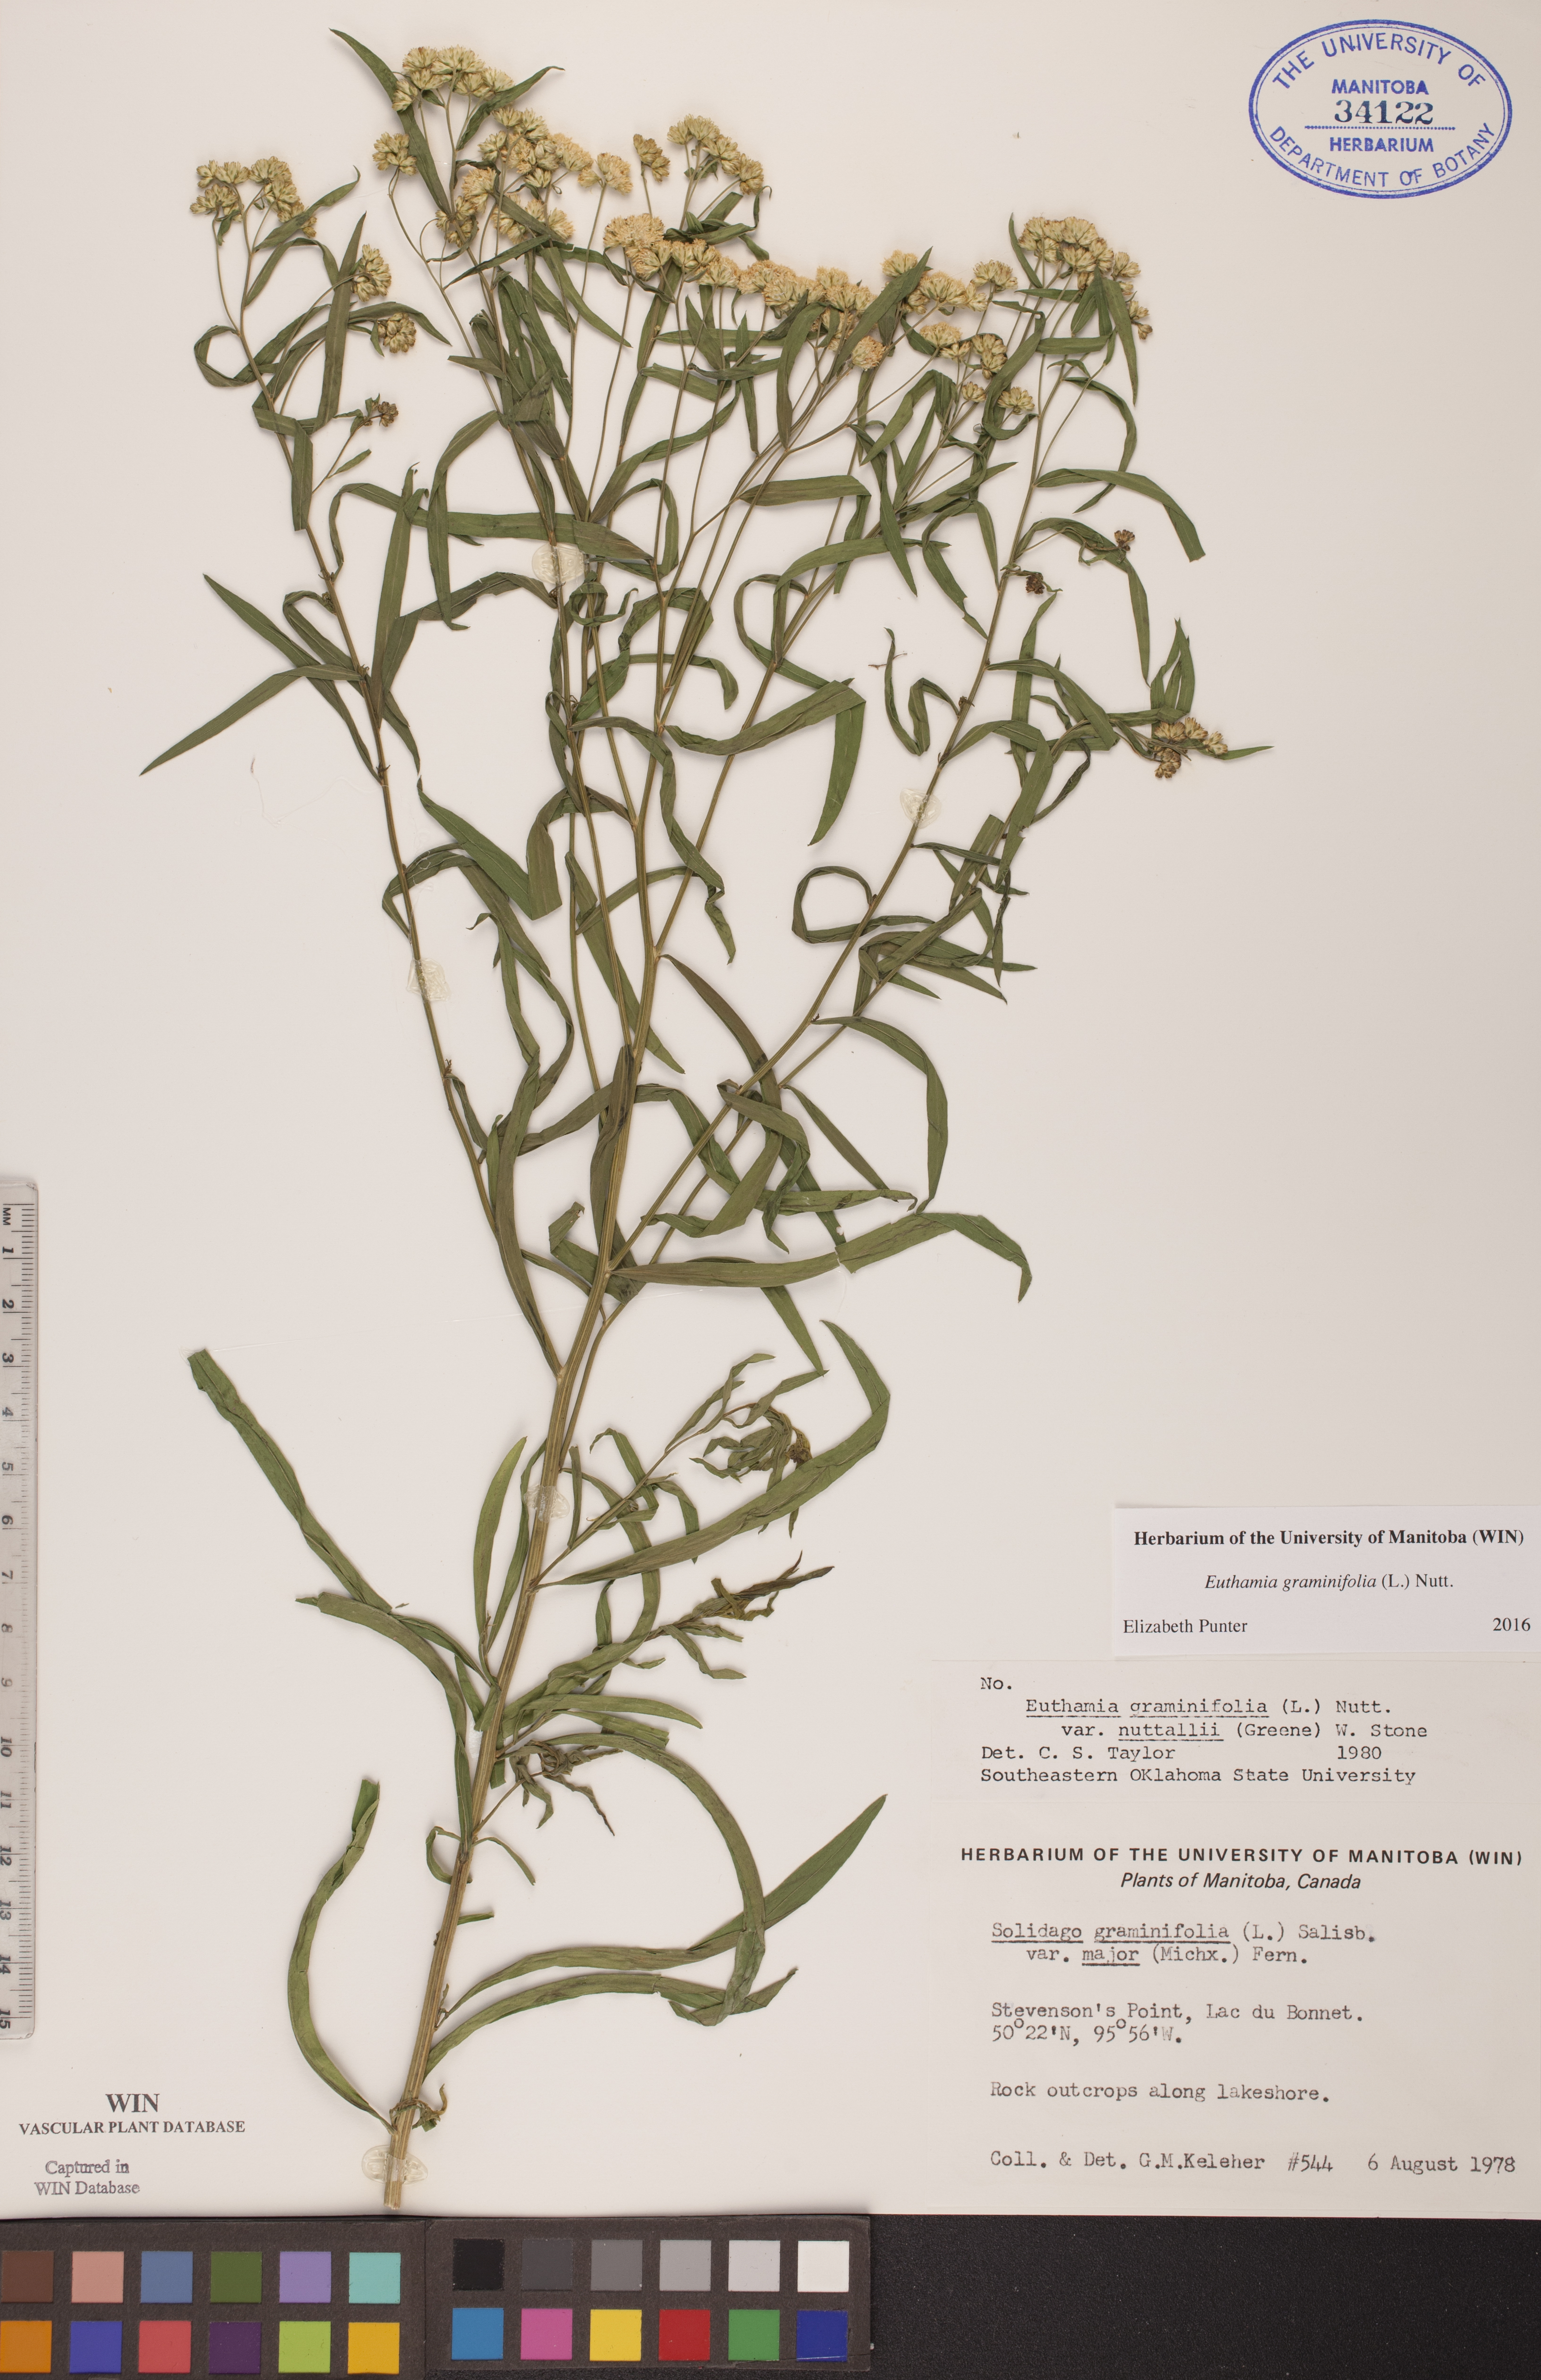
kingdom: Plantae
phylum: Tracheophyta
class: Magnoliopsida
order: Asterales
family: Asteraceae
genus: Euthamia
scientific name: Euthamia graminifolia
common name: Common goldentop
